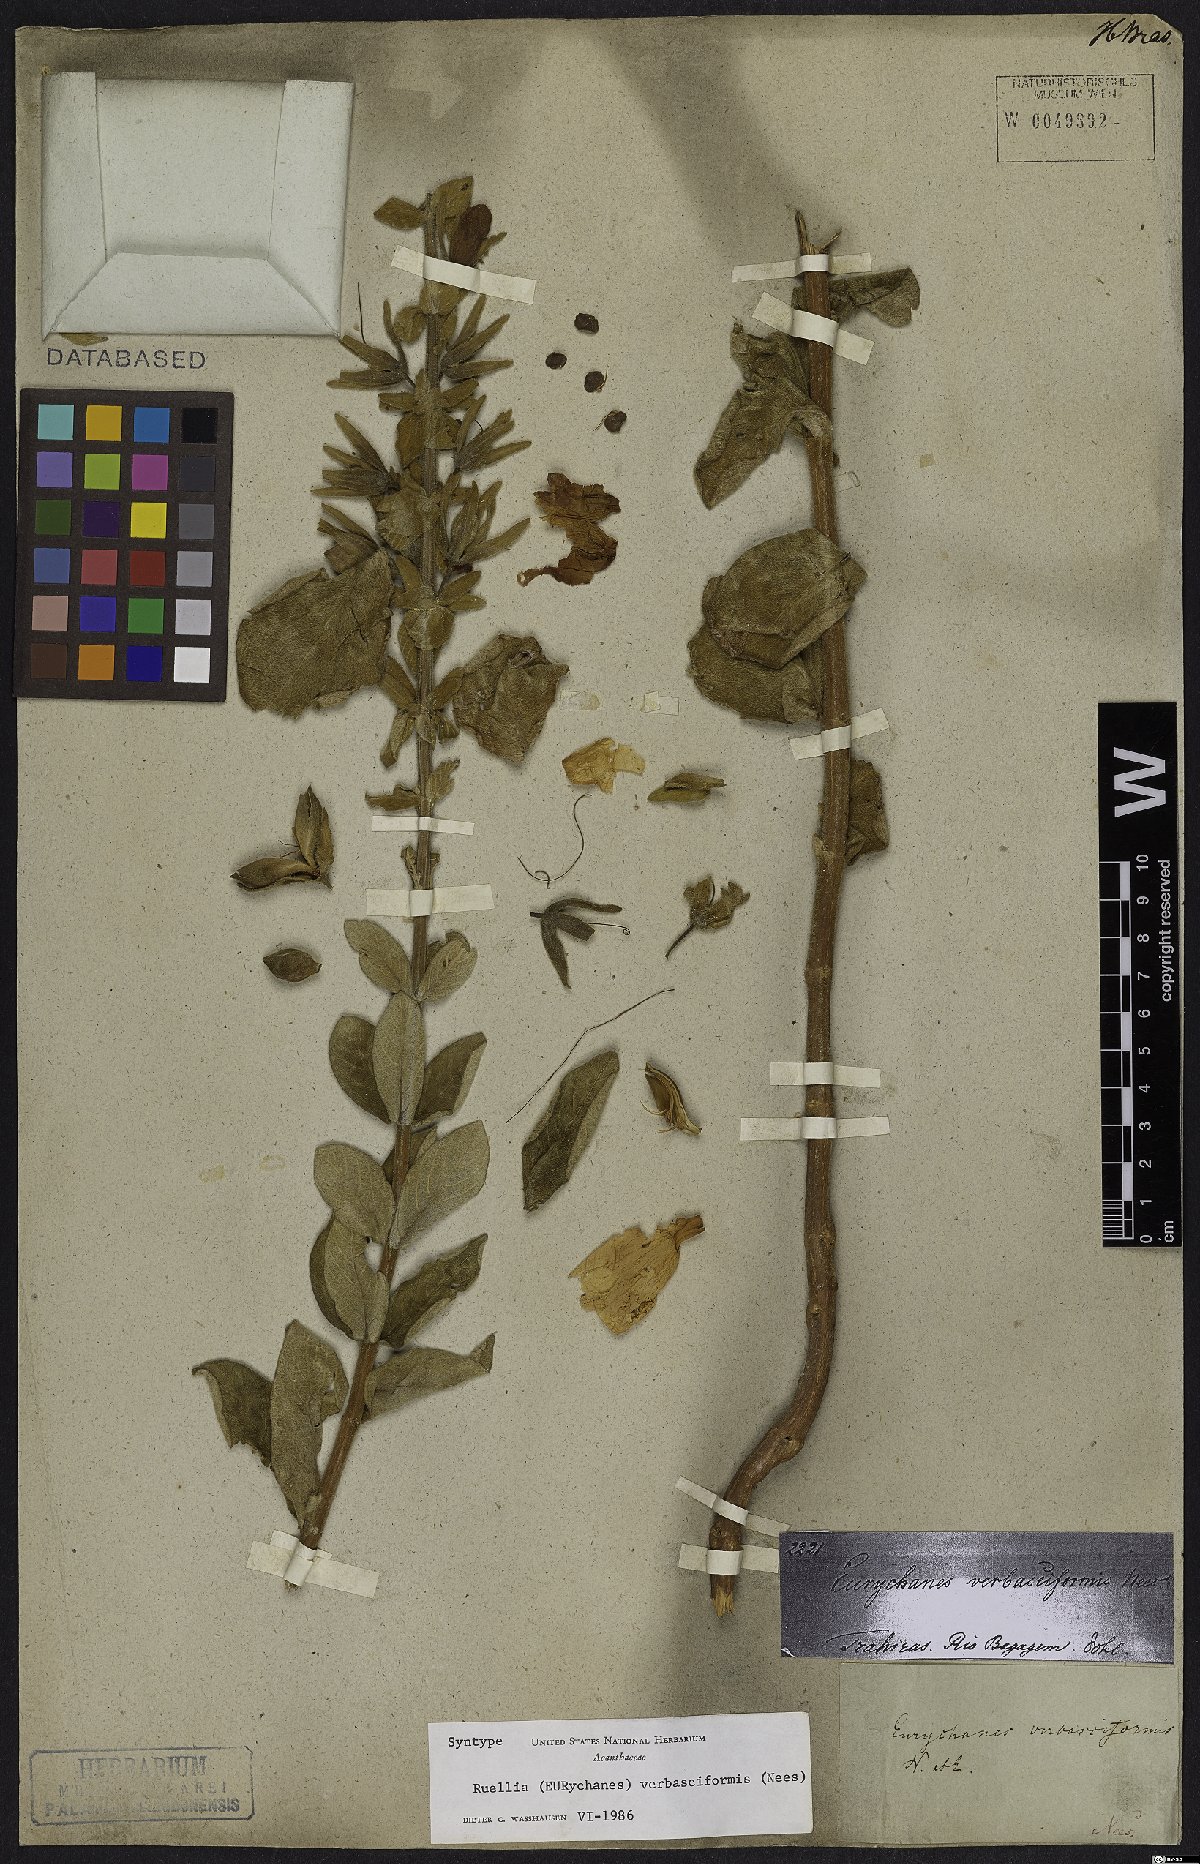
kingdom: Plantae
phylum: Tracheophyta
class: Magnoliopsida
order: Lamiales
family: Acanthaceae
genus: Ruellia
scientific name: Ruellia verbasciformis
